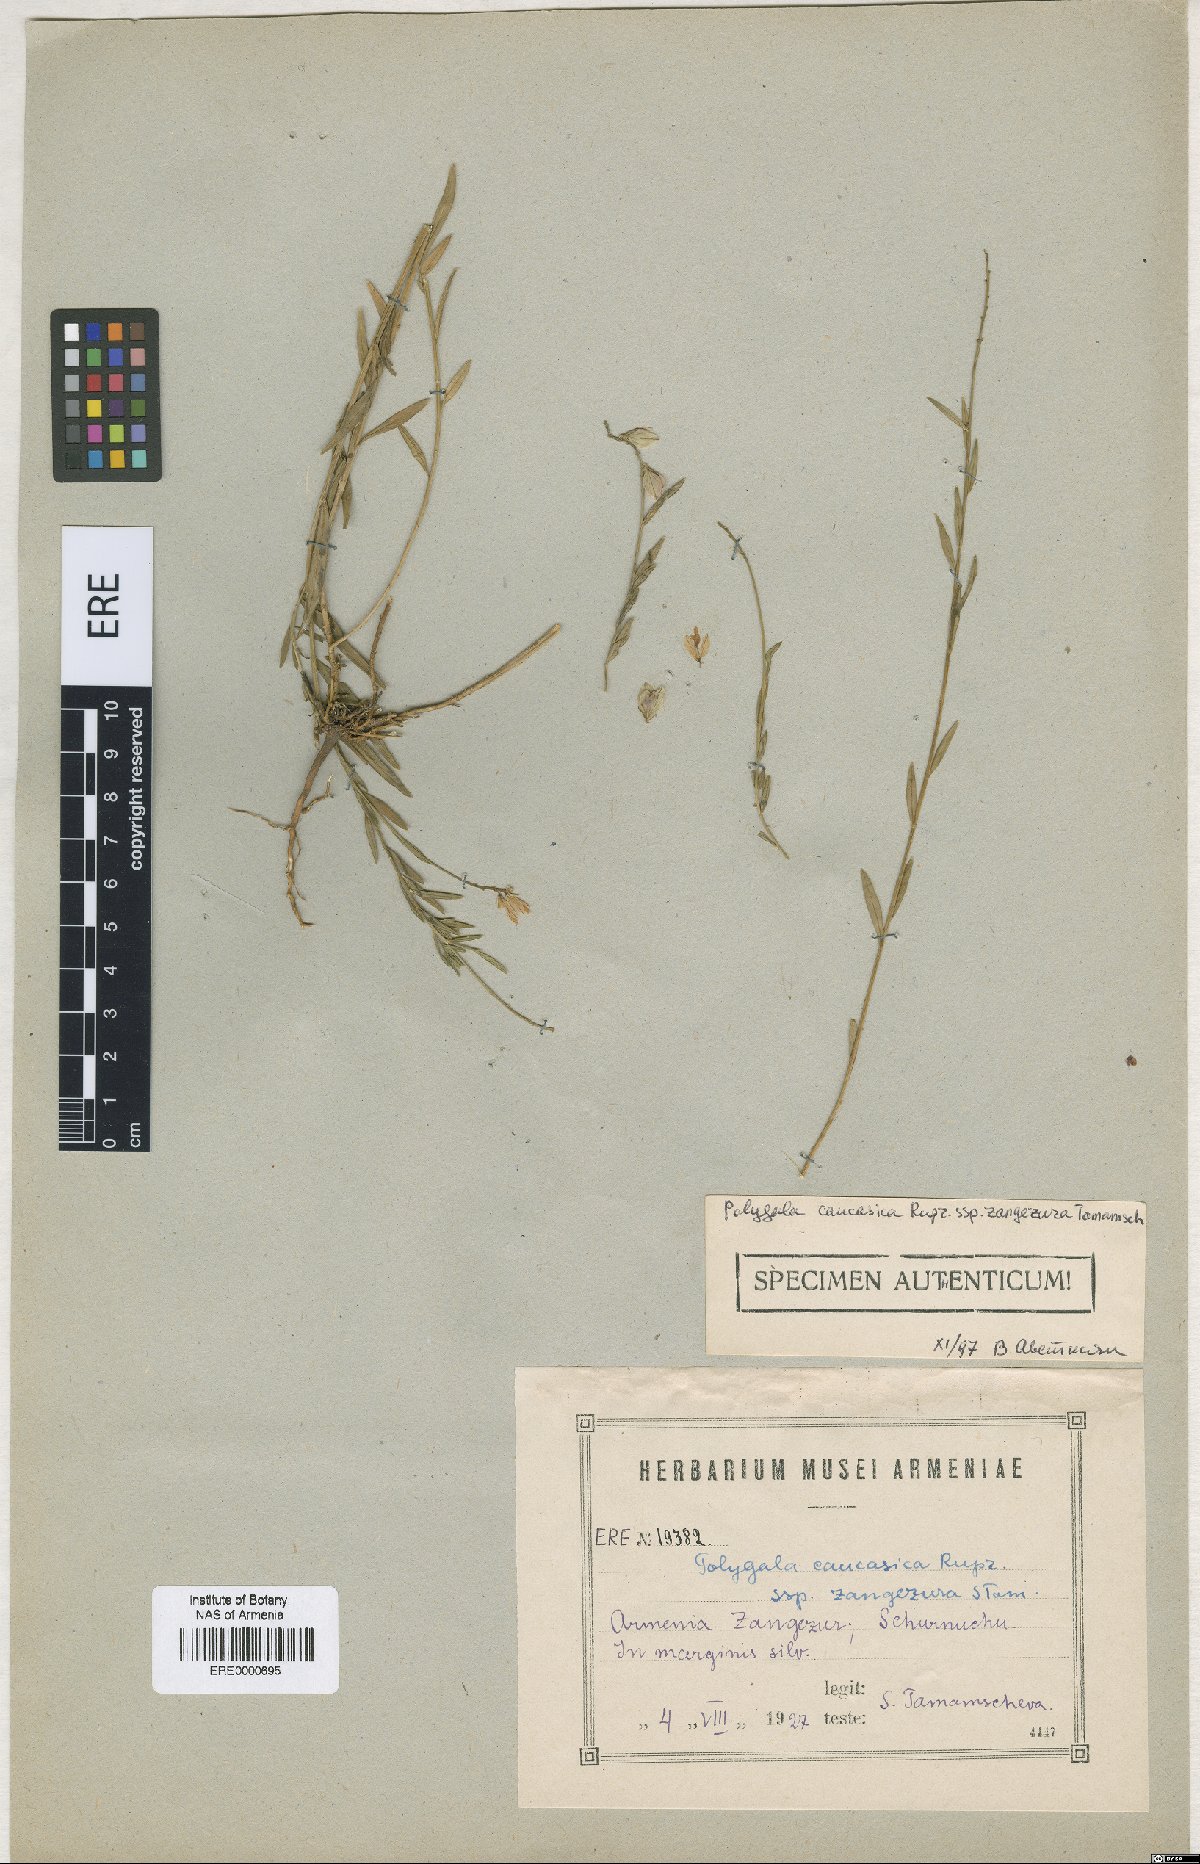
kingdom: Plantae
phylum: Tracheophyta
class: Magnoliopsida
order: Fabales
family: Polygalaceae
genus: Polygala
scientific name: Polygala caucasica
